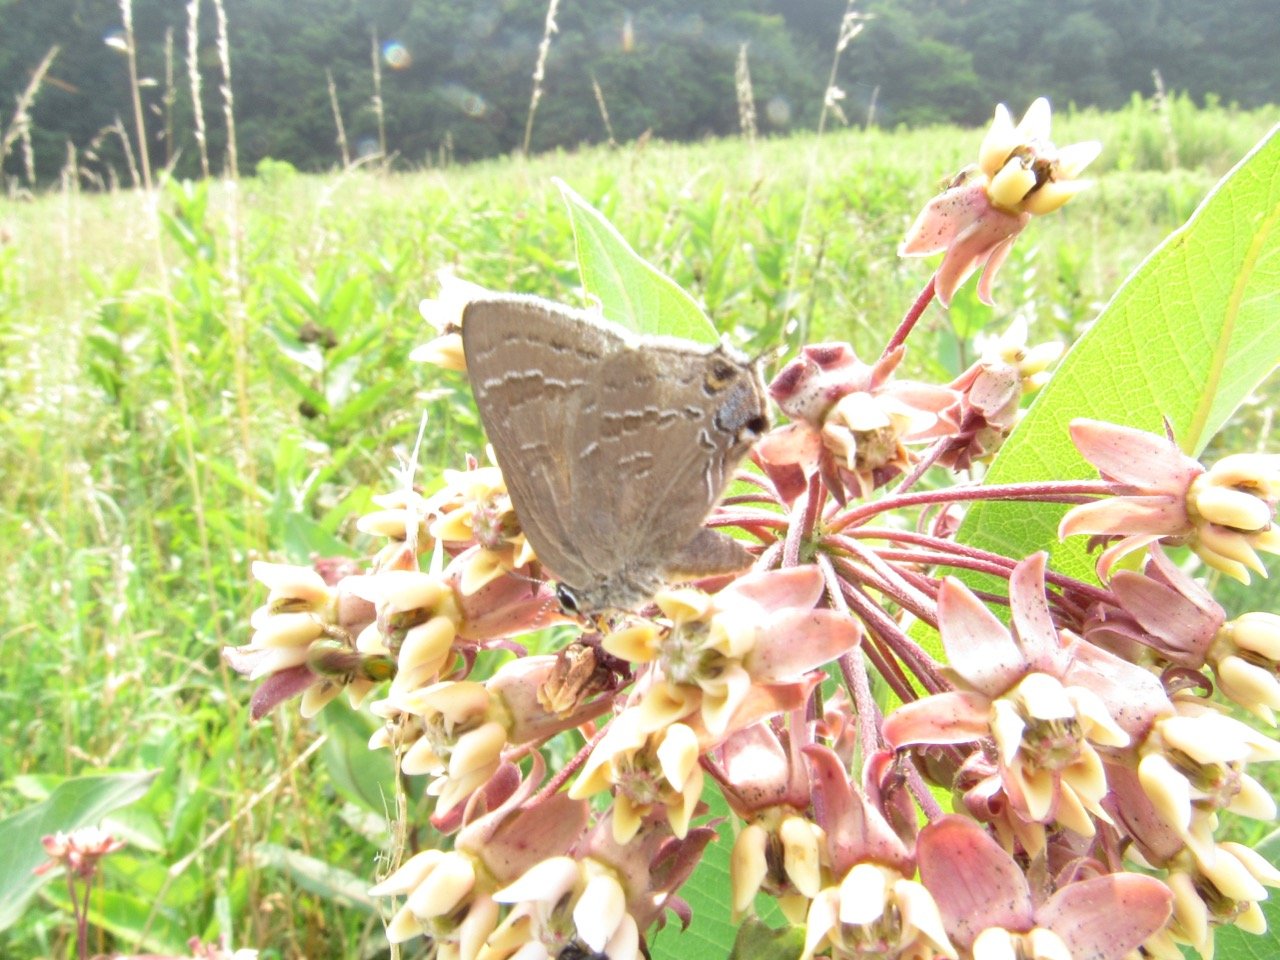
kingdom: Animalia
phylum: Arthropoda
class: Insecta
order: Lepidoptera
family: Lycaenidae
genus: Satyrium
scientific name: Satyrium calanus
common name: Banded Hairstreak
